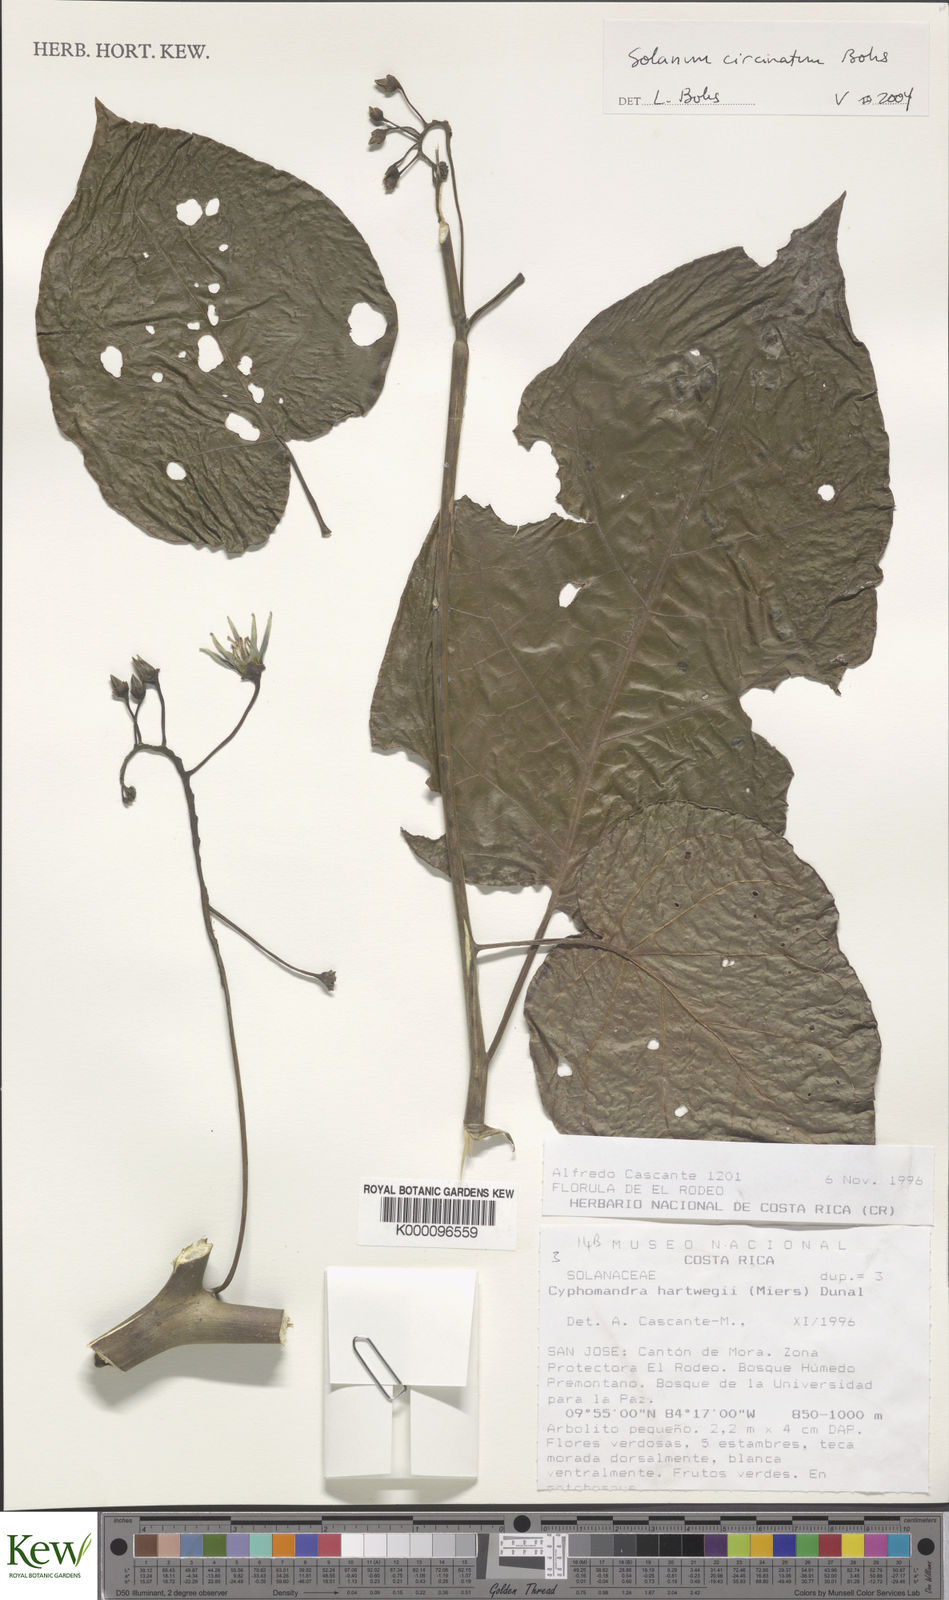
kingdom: Plantae
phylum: Tracheophyta
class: Magnoliopsida
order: Solanales
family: Solanaceae
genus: Solanum
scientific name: Solanum splendens
